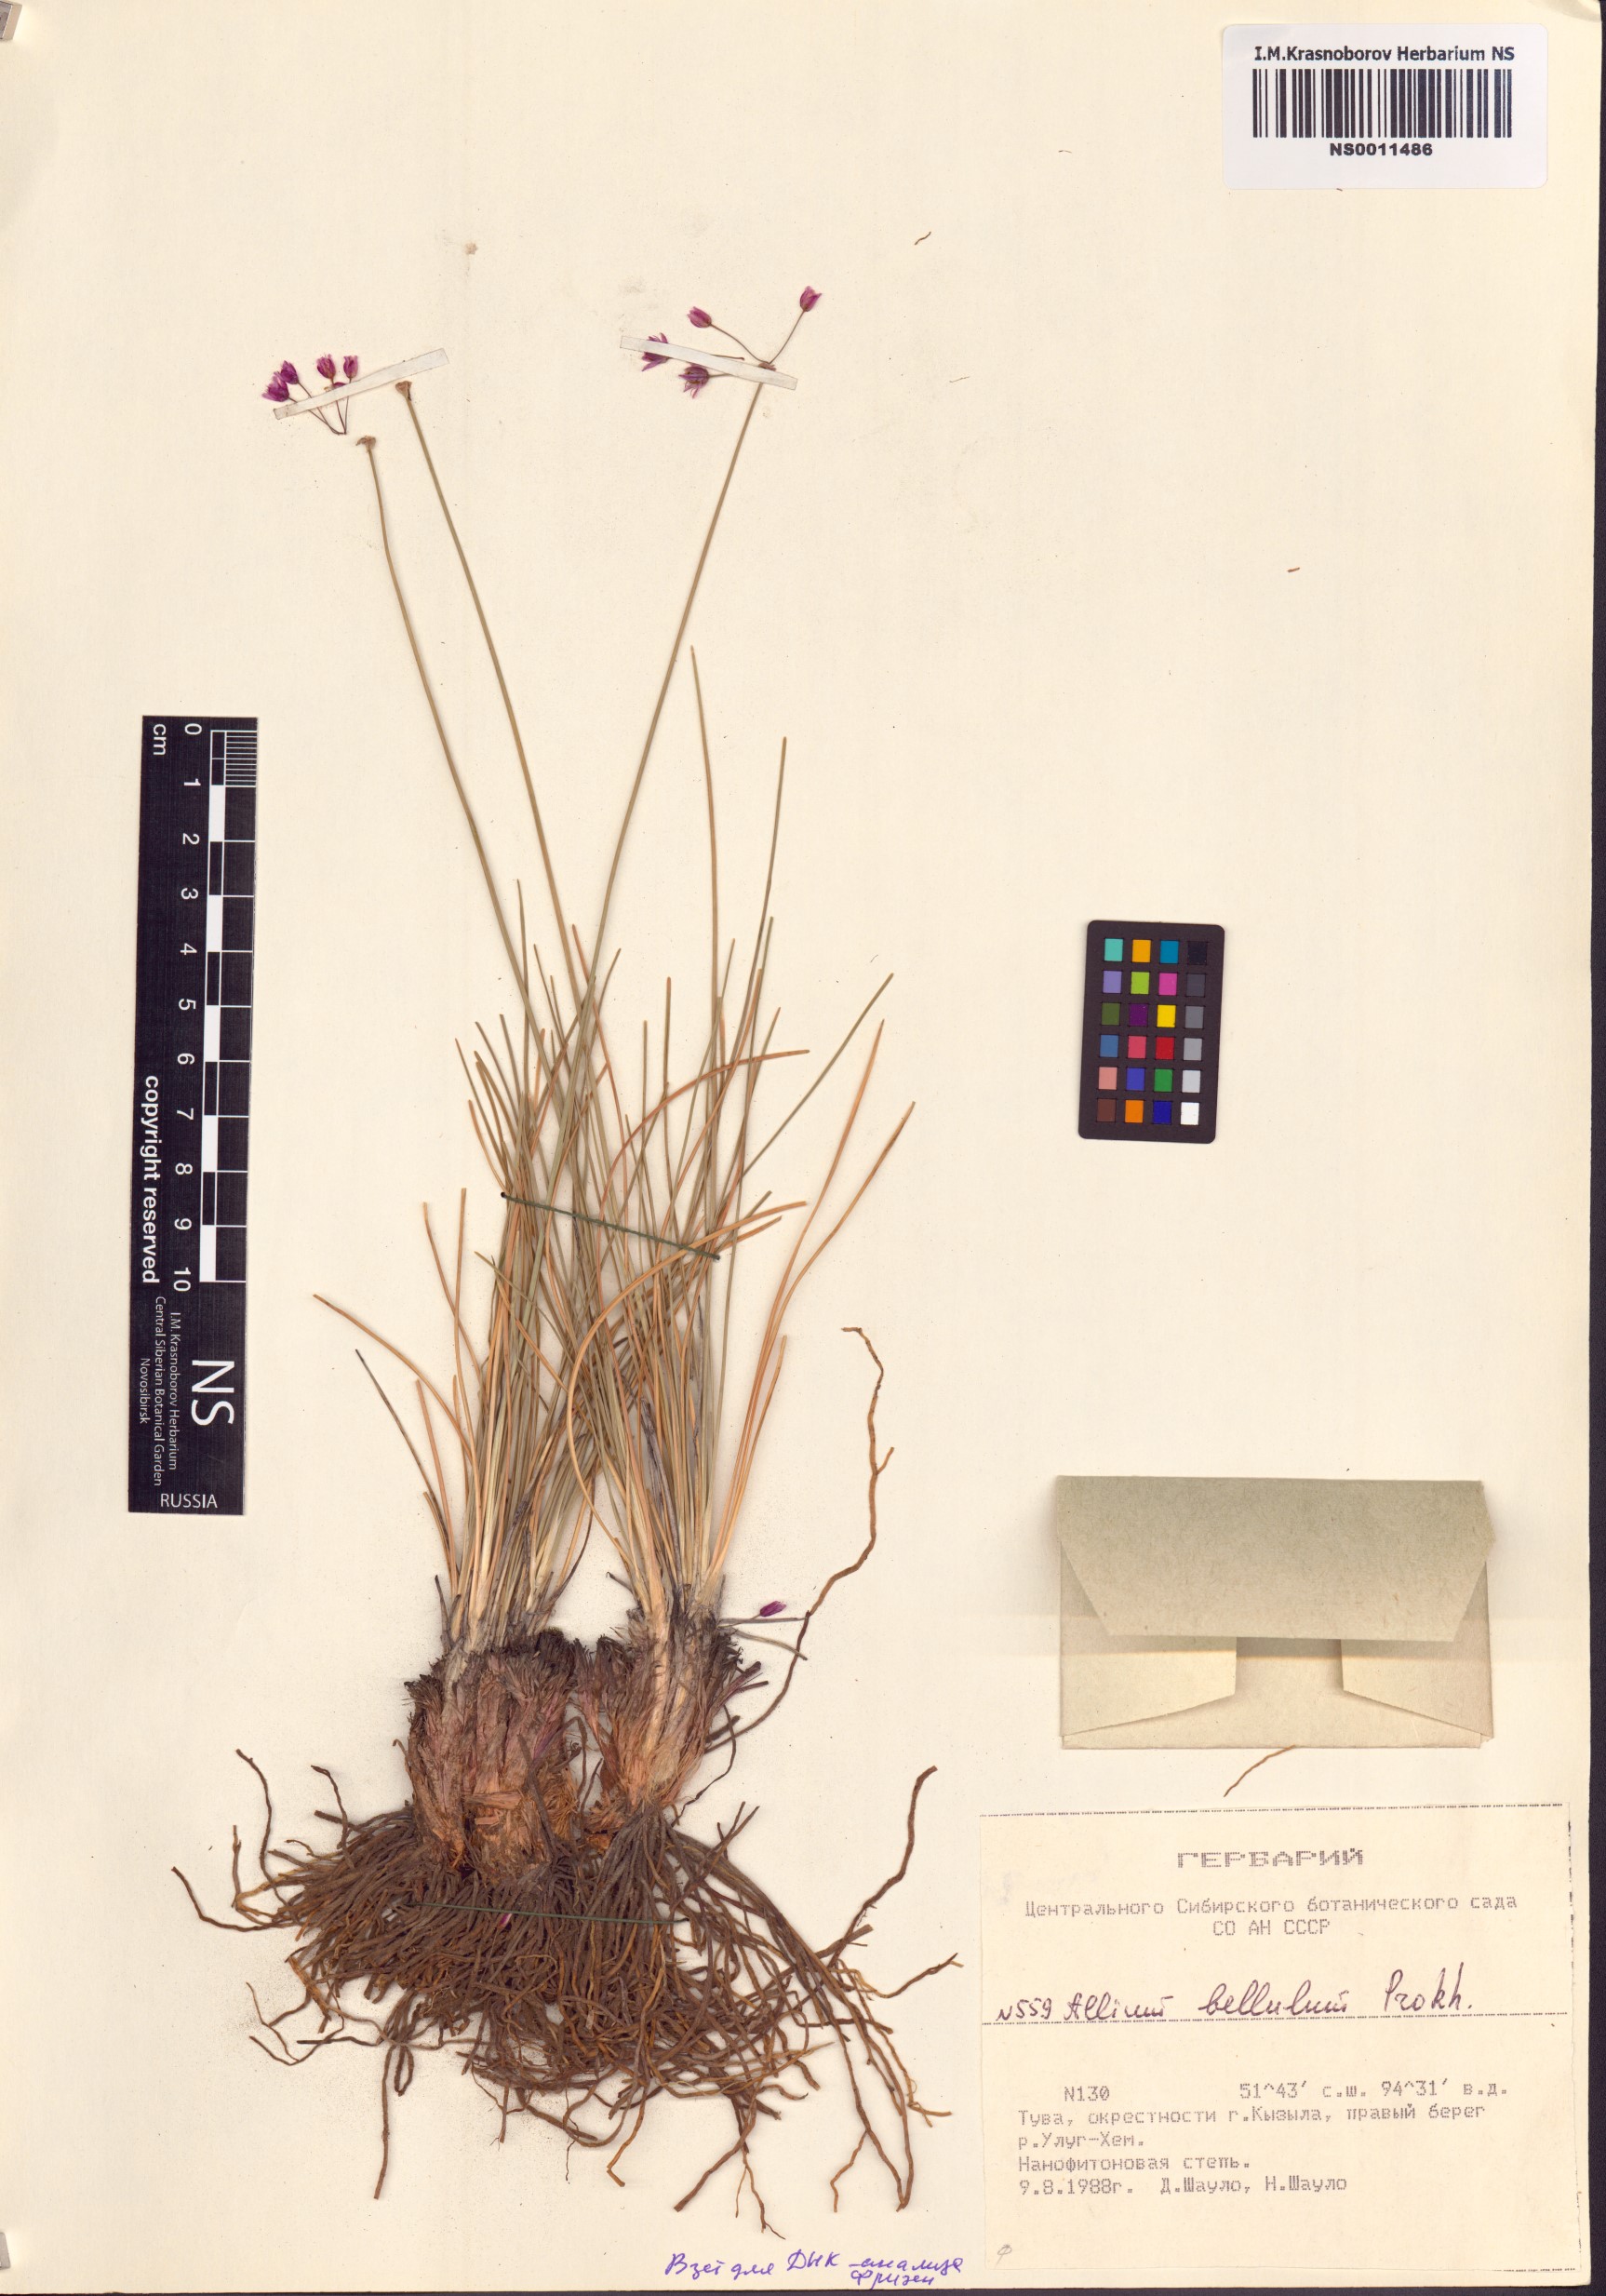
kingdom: Plantae
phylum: Tracheophyta
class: Liliopsida
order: Asparagales
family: Amaryllidaceae
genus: Allium
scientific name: Allium bellulum
